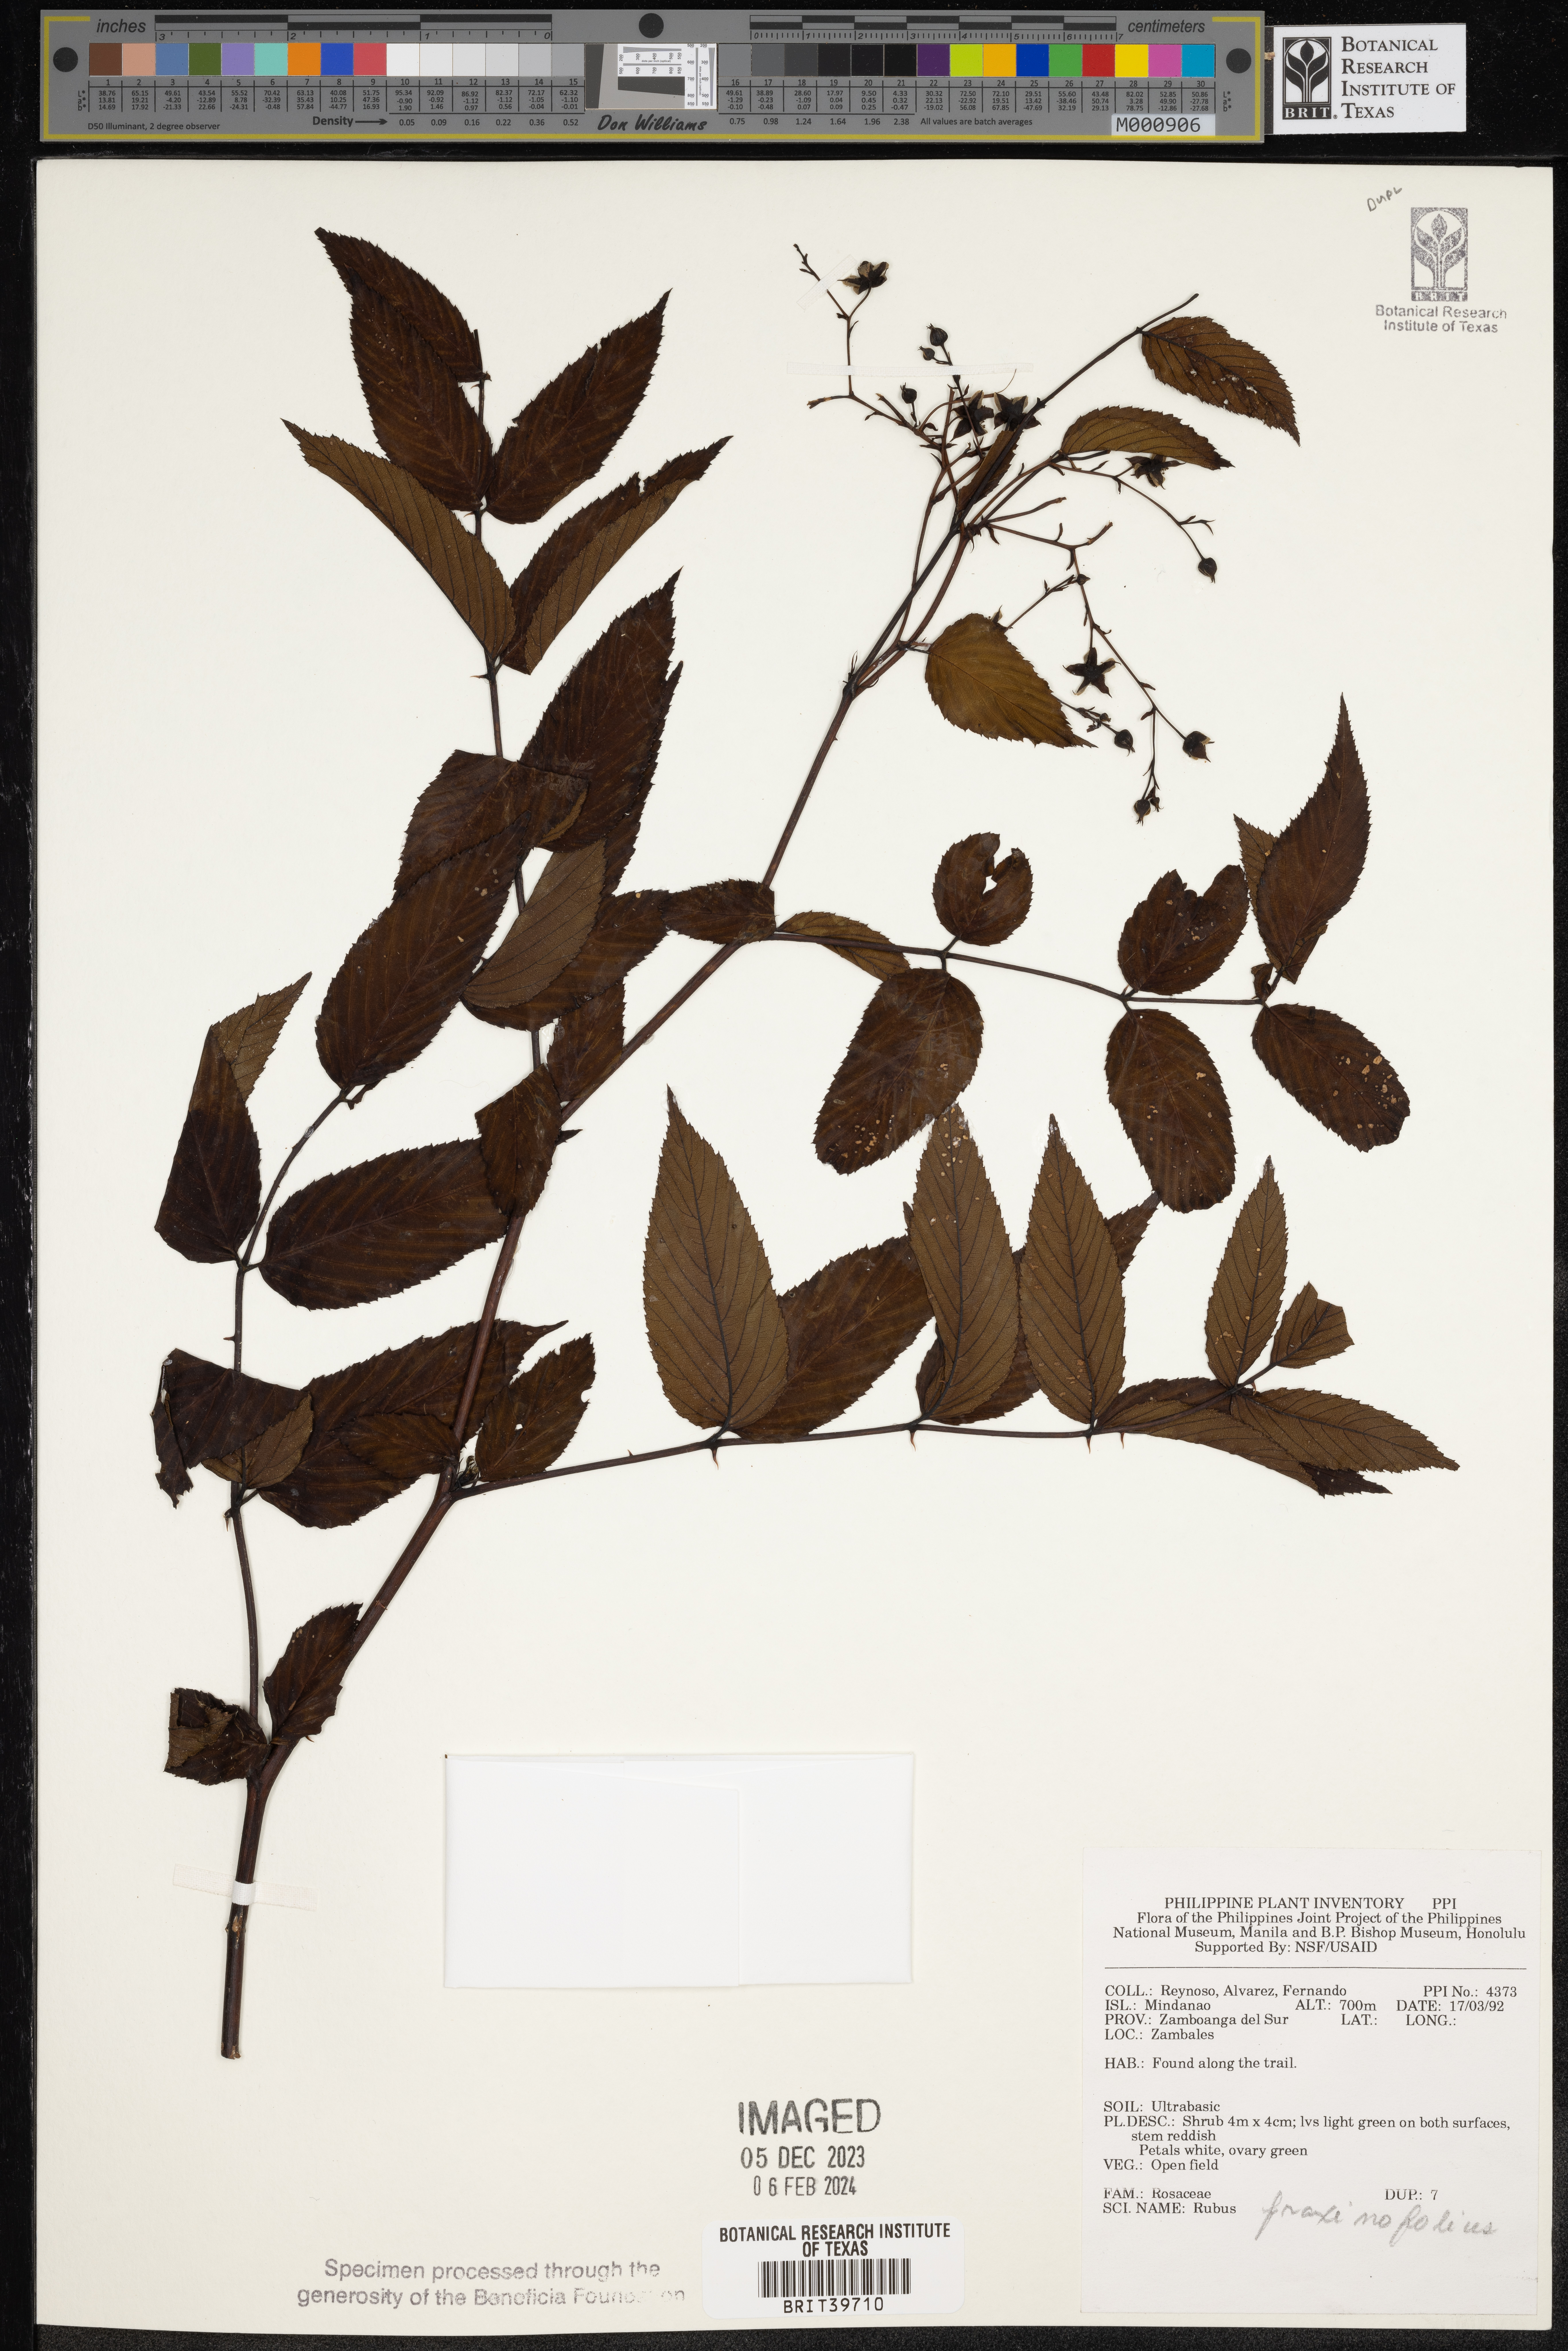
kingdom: Plantae
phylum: Tracheophyta
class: Magnoliopsida
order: Rosales
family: Rosaceae
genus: Rubus
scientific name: Rubus fraxinifolius
